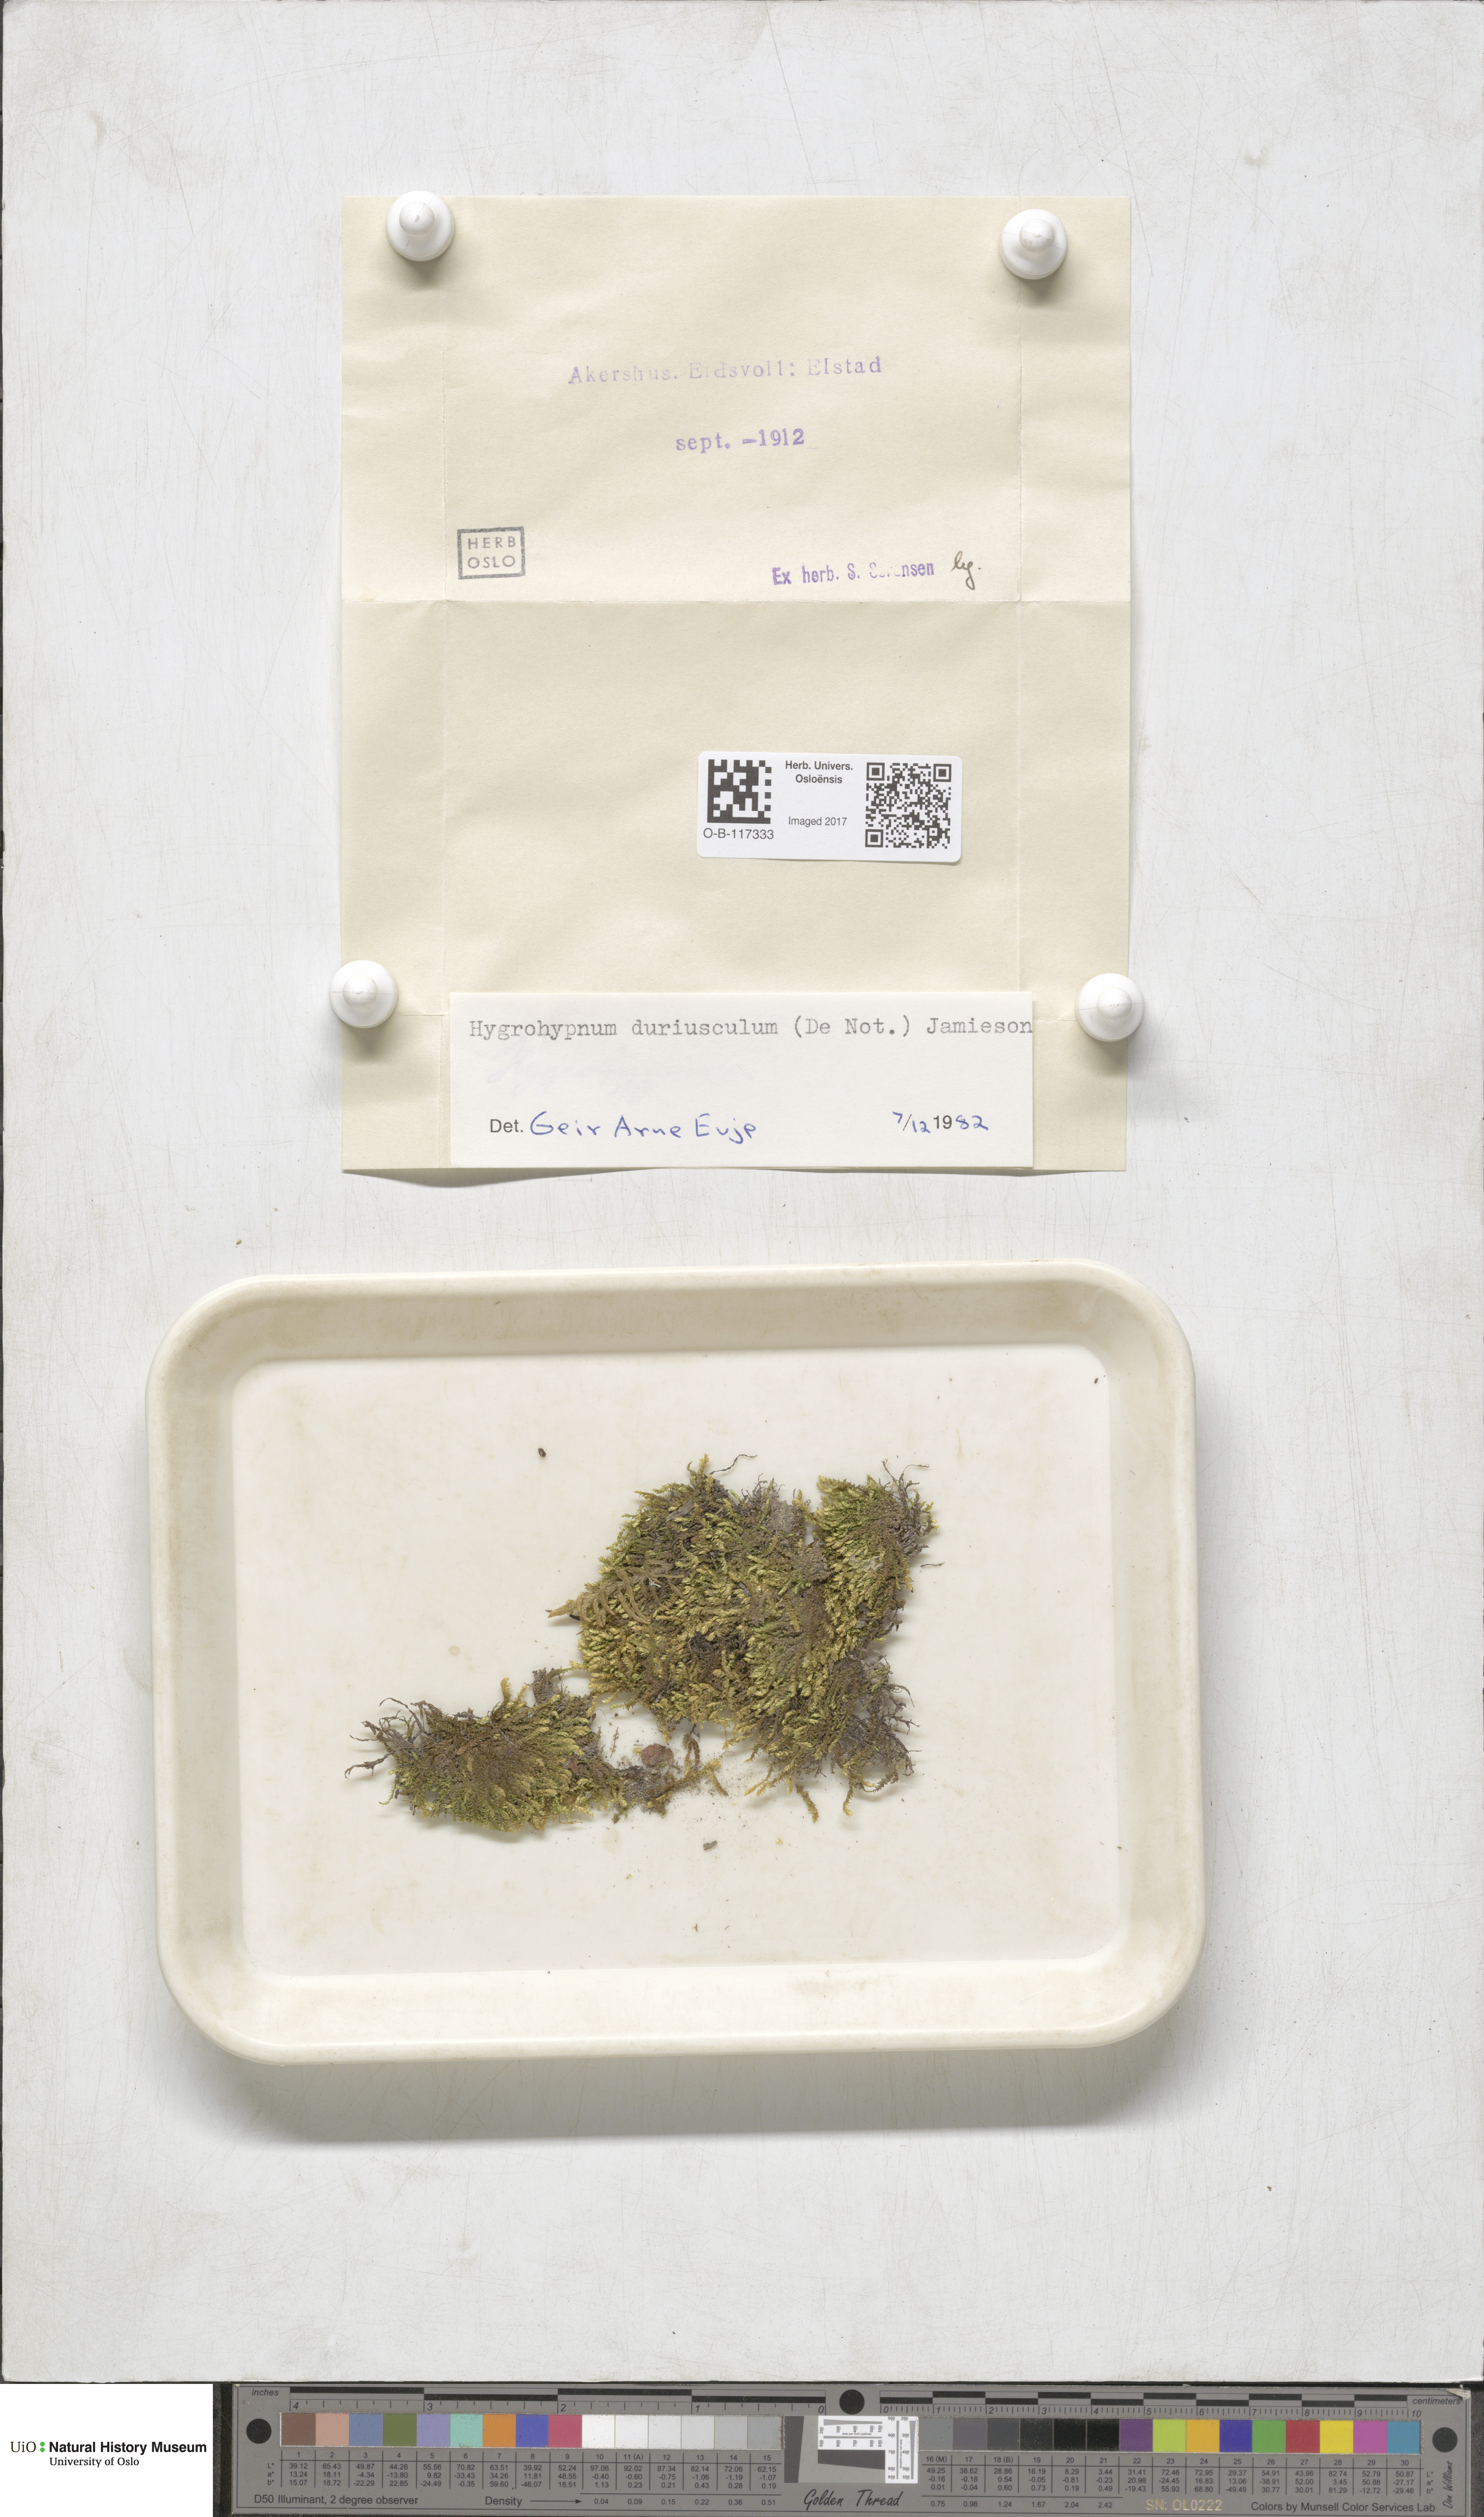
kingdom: Plantae
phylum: Bryophyta
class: Bryopsida
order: Hypnales
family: Amblystegiaceae
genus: Platyhypnum
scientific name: Platyhypnum duriusculum
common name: Broad-leaved brook-moss
